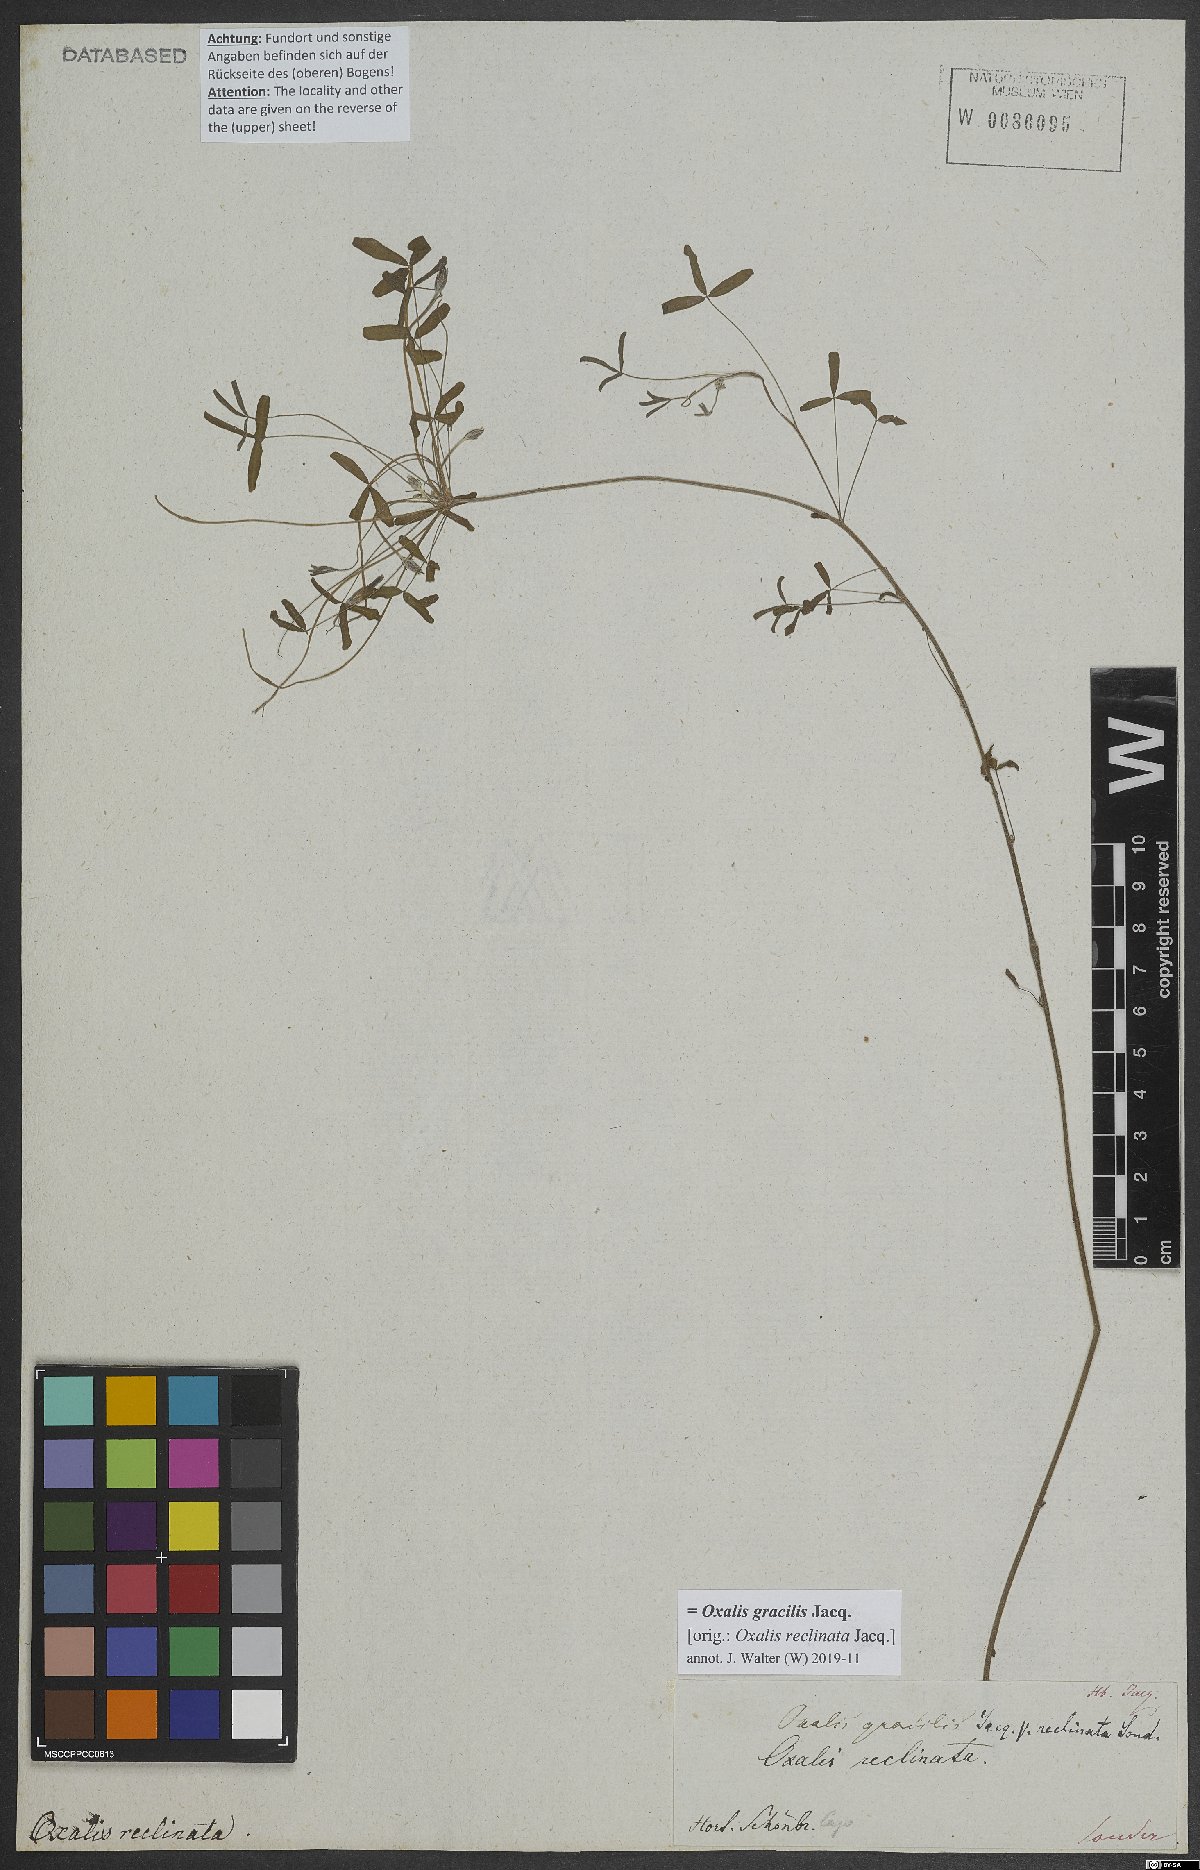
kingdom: Plantae
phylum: Tracheophyta
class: Magnoliopsida
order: Oxalidales
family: Oxalidaceae
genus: Oxalis
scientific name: Oxalis gracilis
